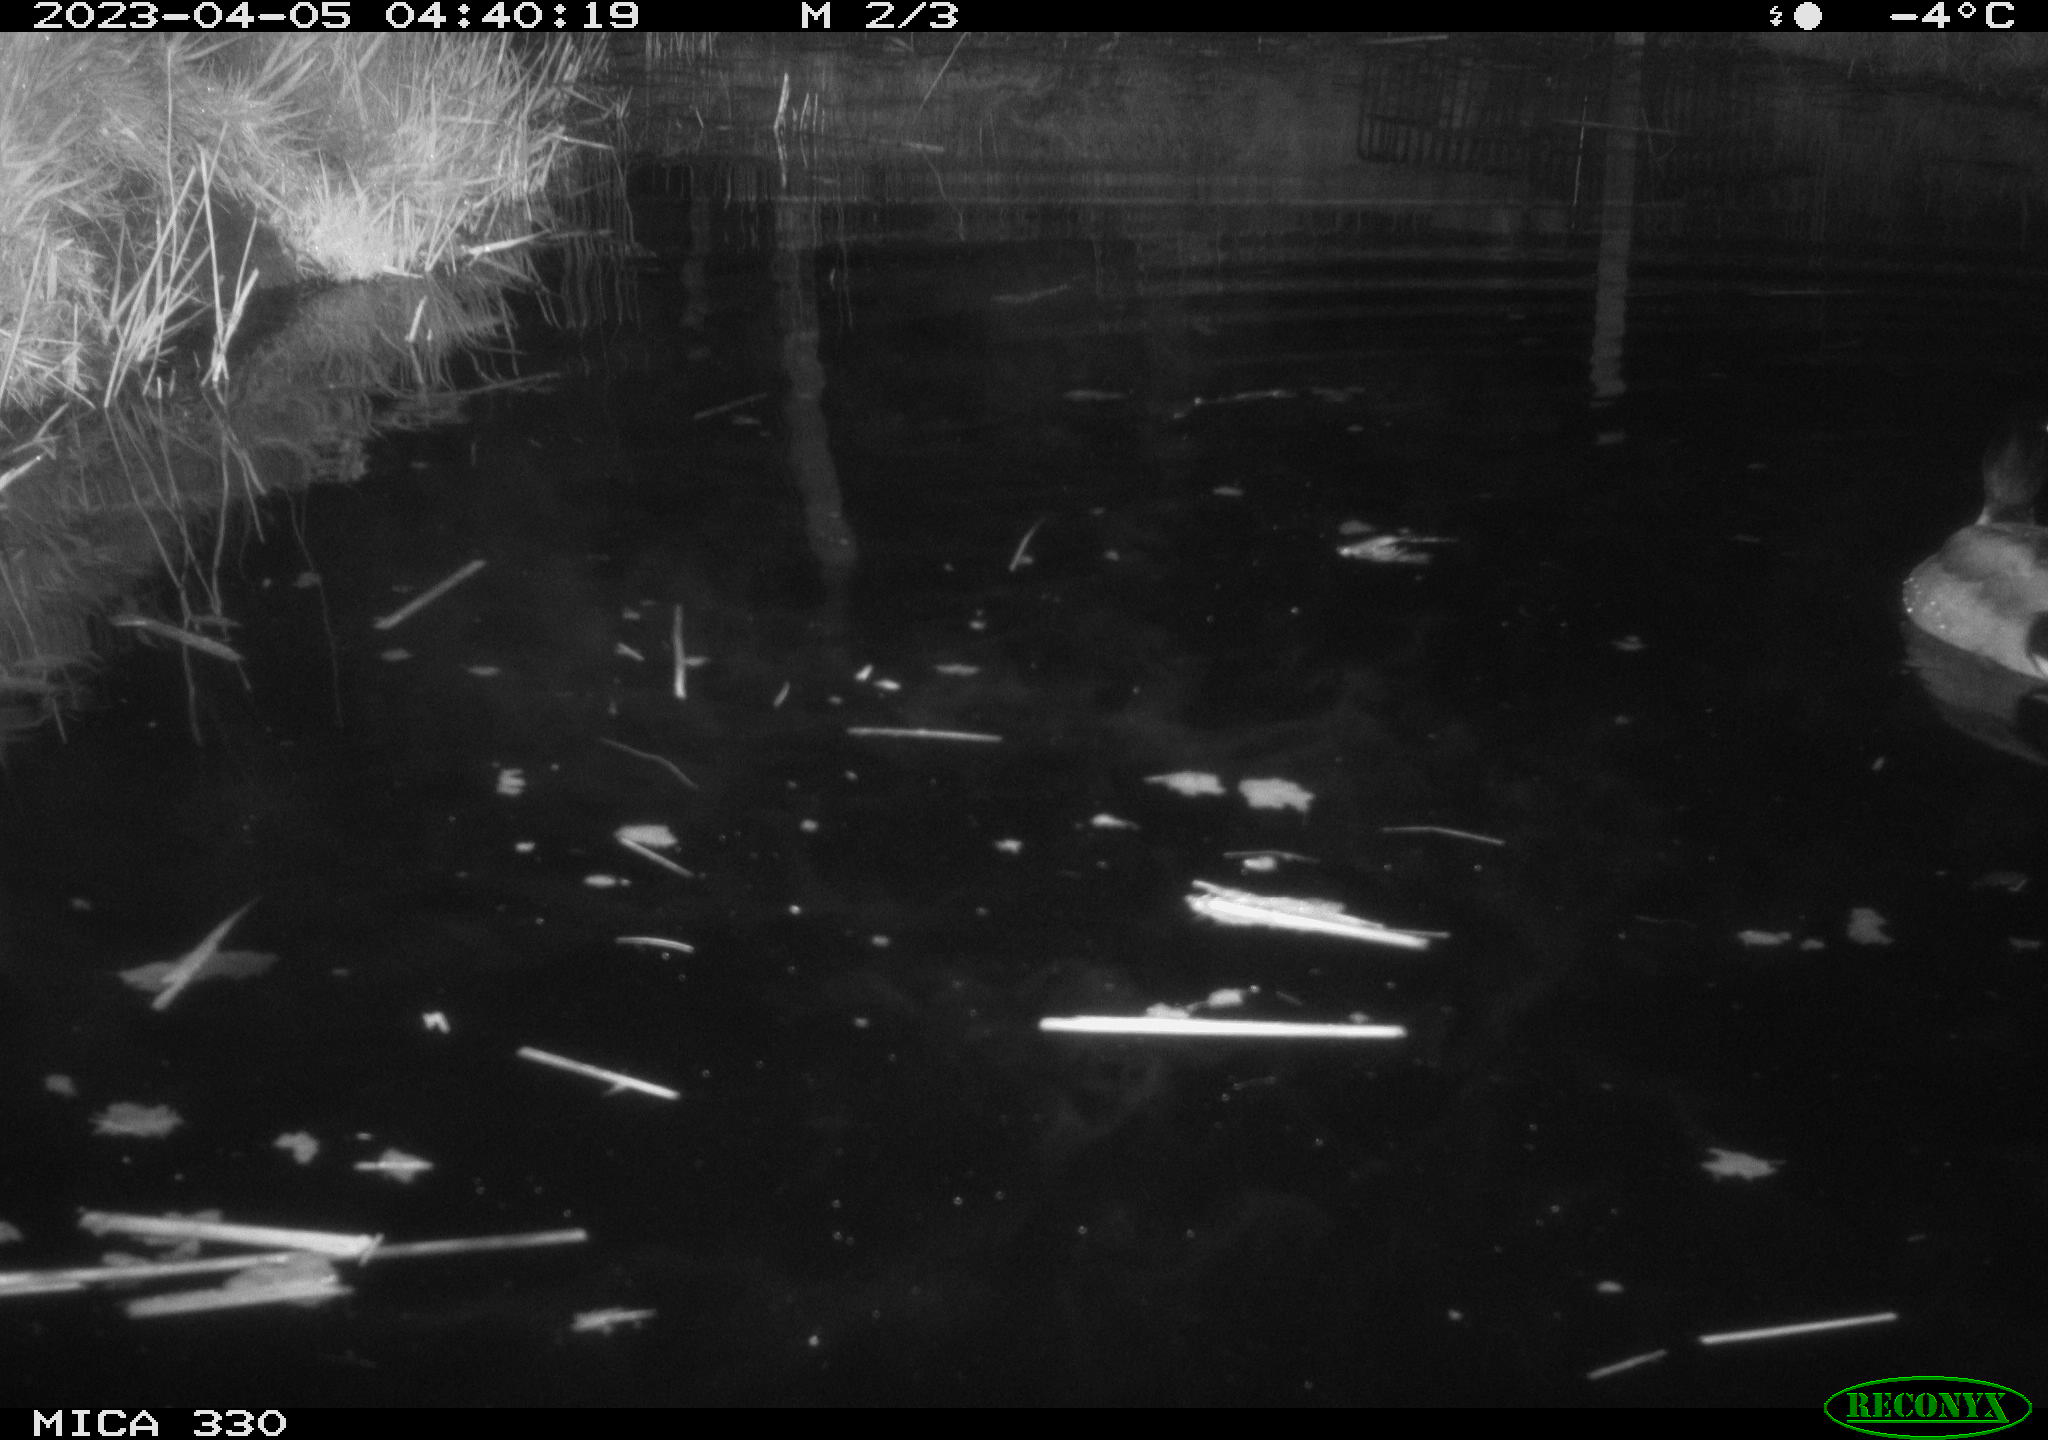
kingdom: Animalia
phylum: Chordata
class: Aves
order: Anseriformes
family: Anatidae
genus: Anas
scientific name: Anas
